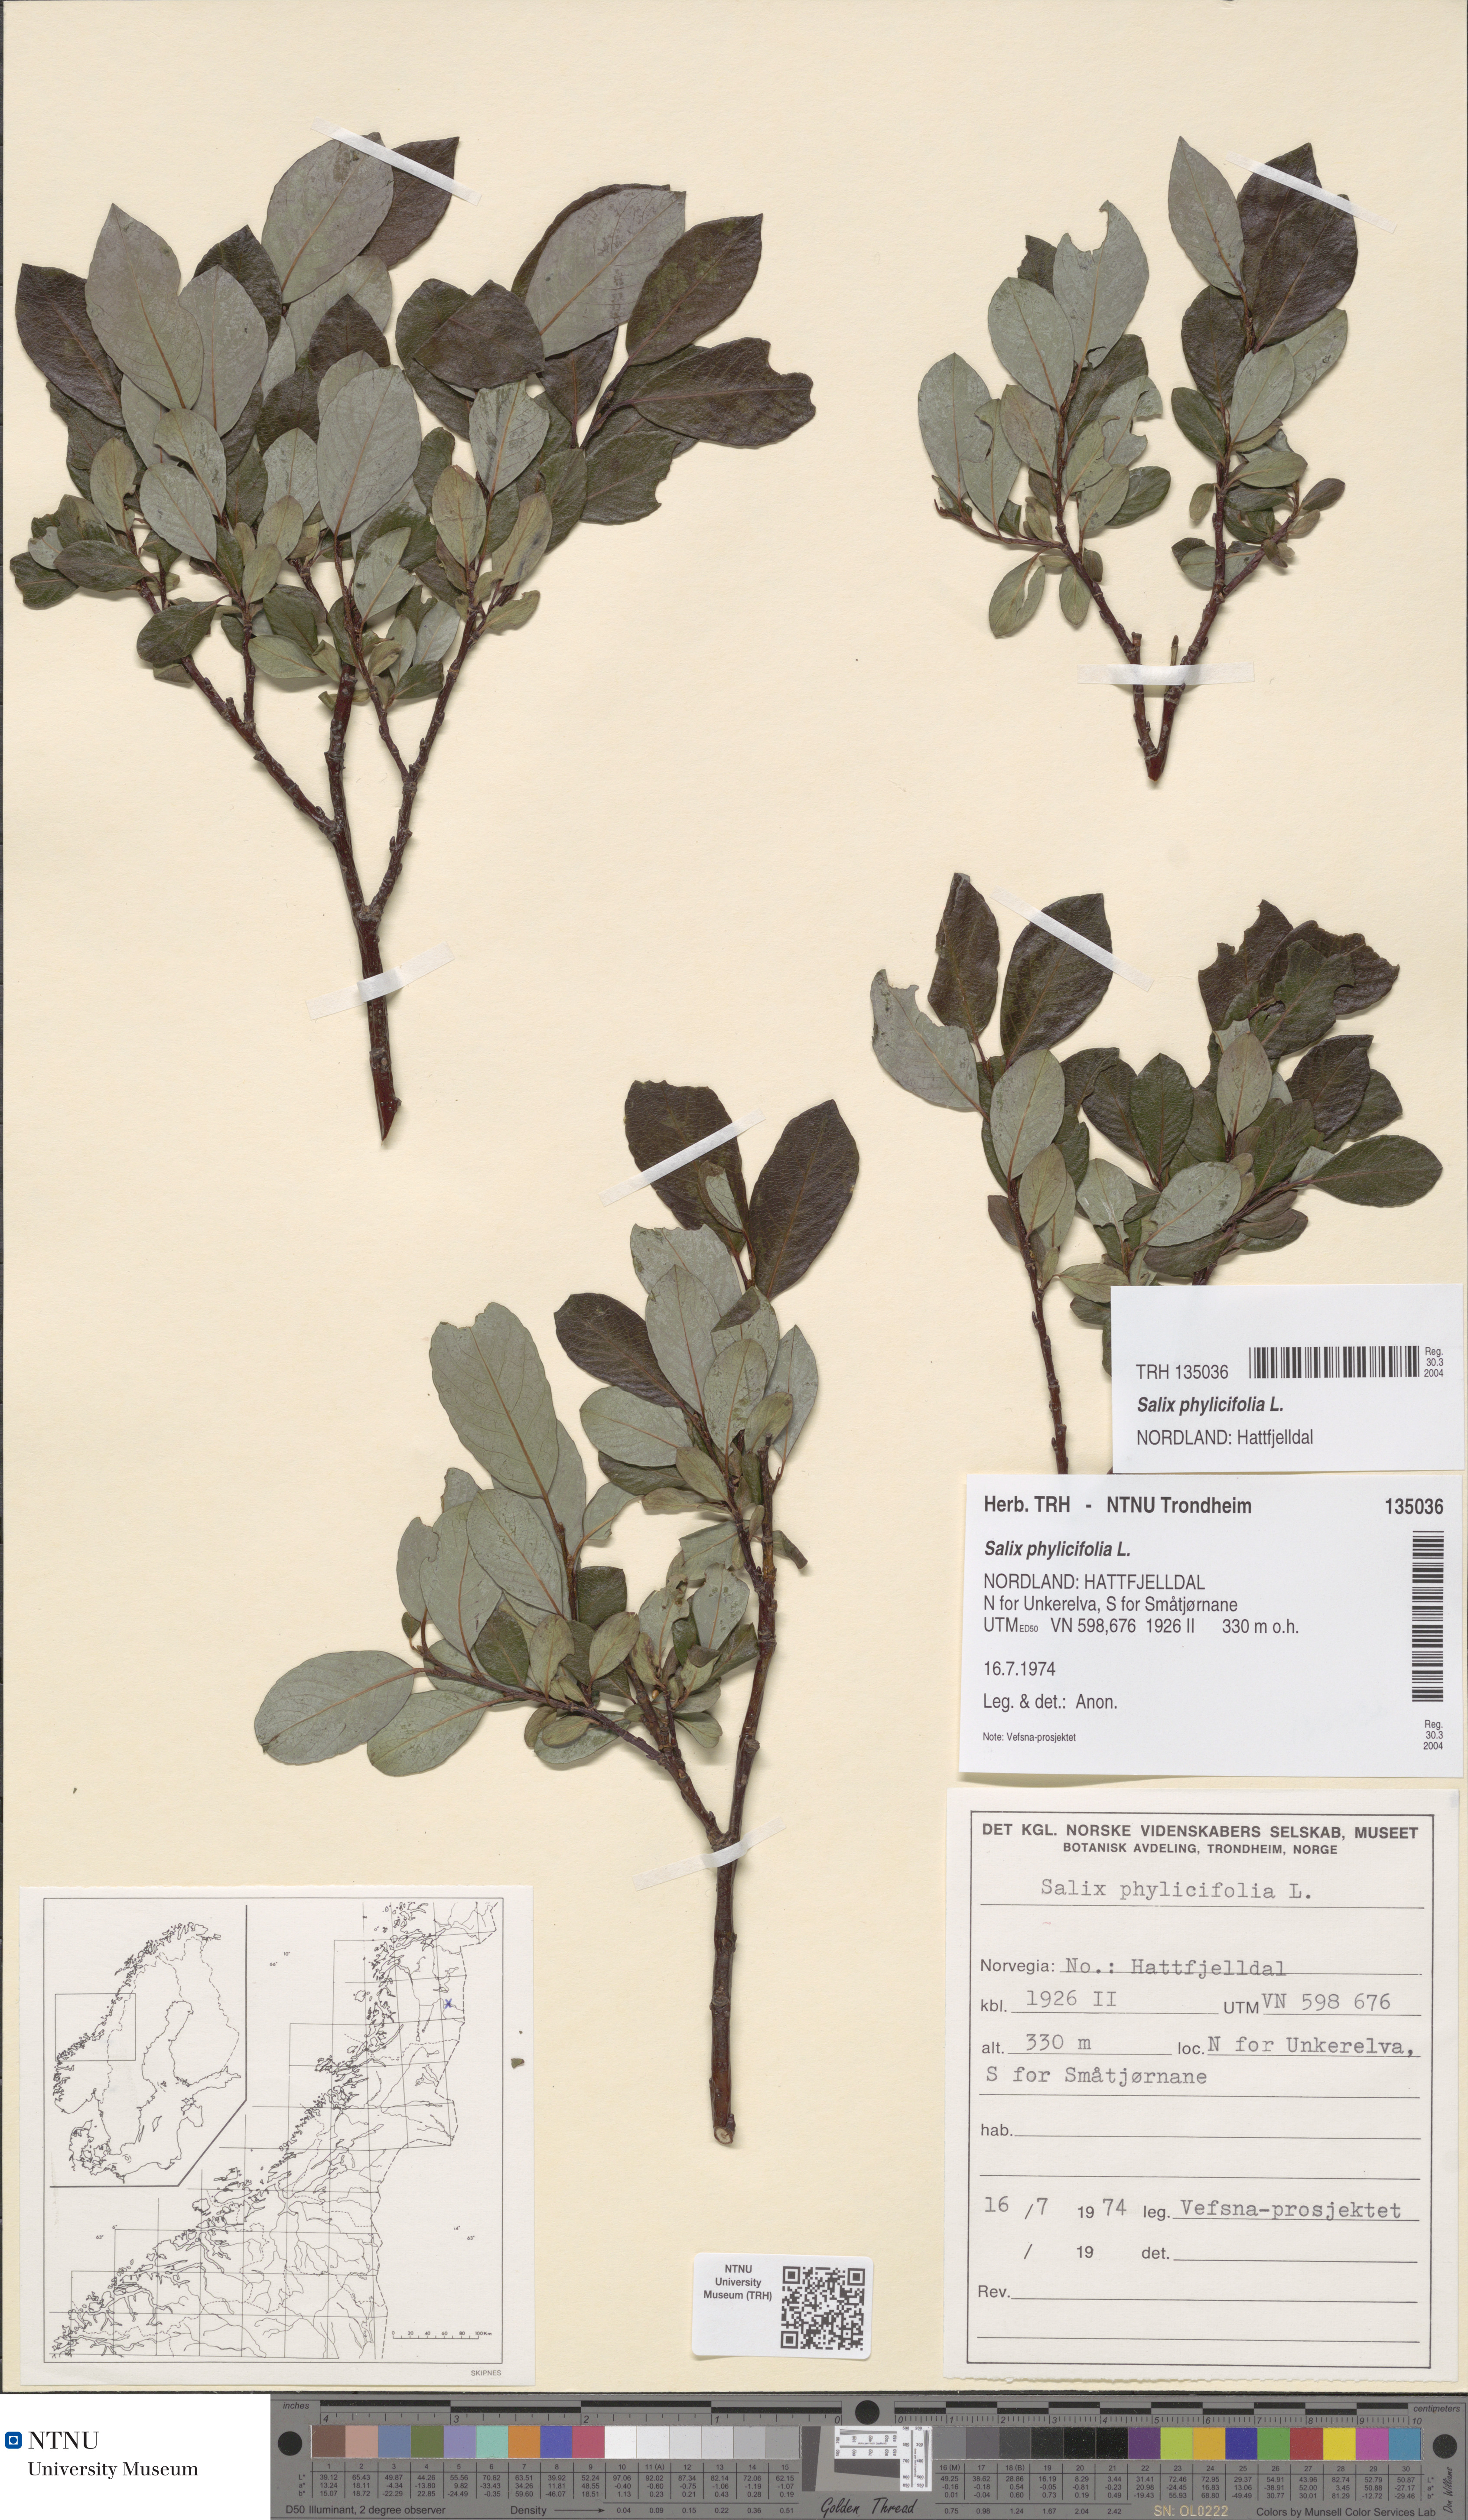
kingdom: Plantae
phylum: Tracheophyta
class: Magnoliopsida
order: Malpighiales
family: Salicaceae
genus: Salix
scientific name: Salix phylicifolia
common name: Tea-leaved willow
